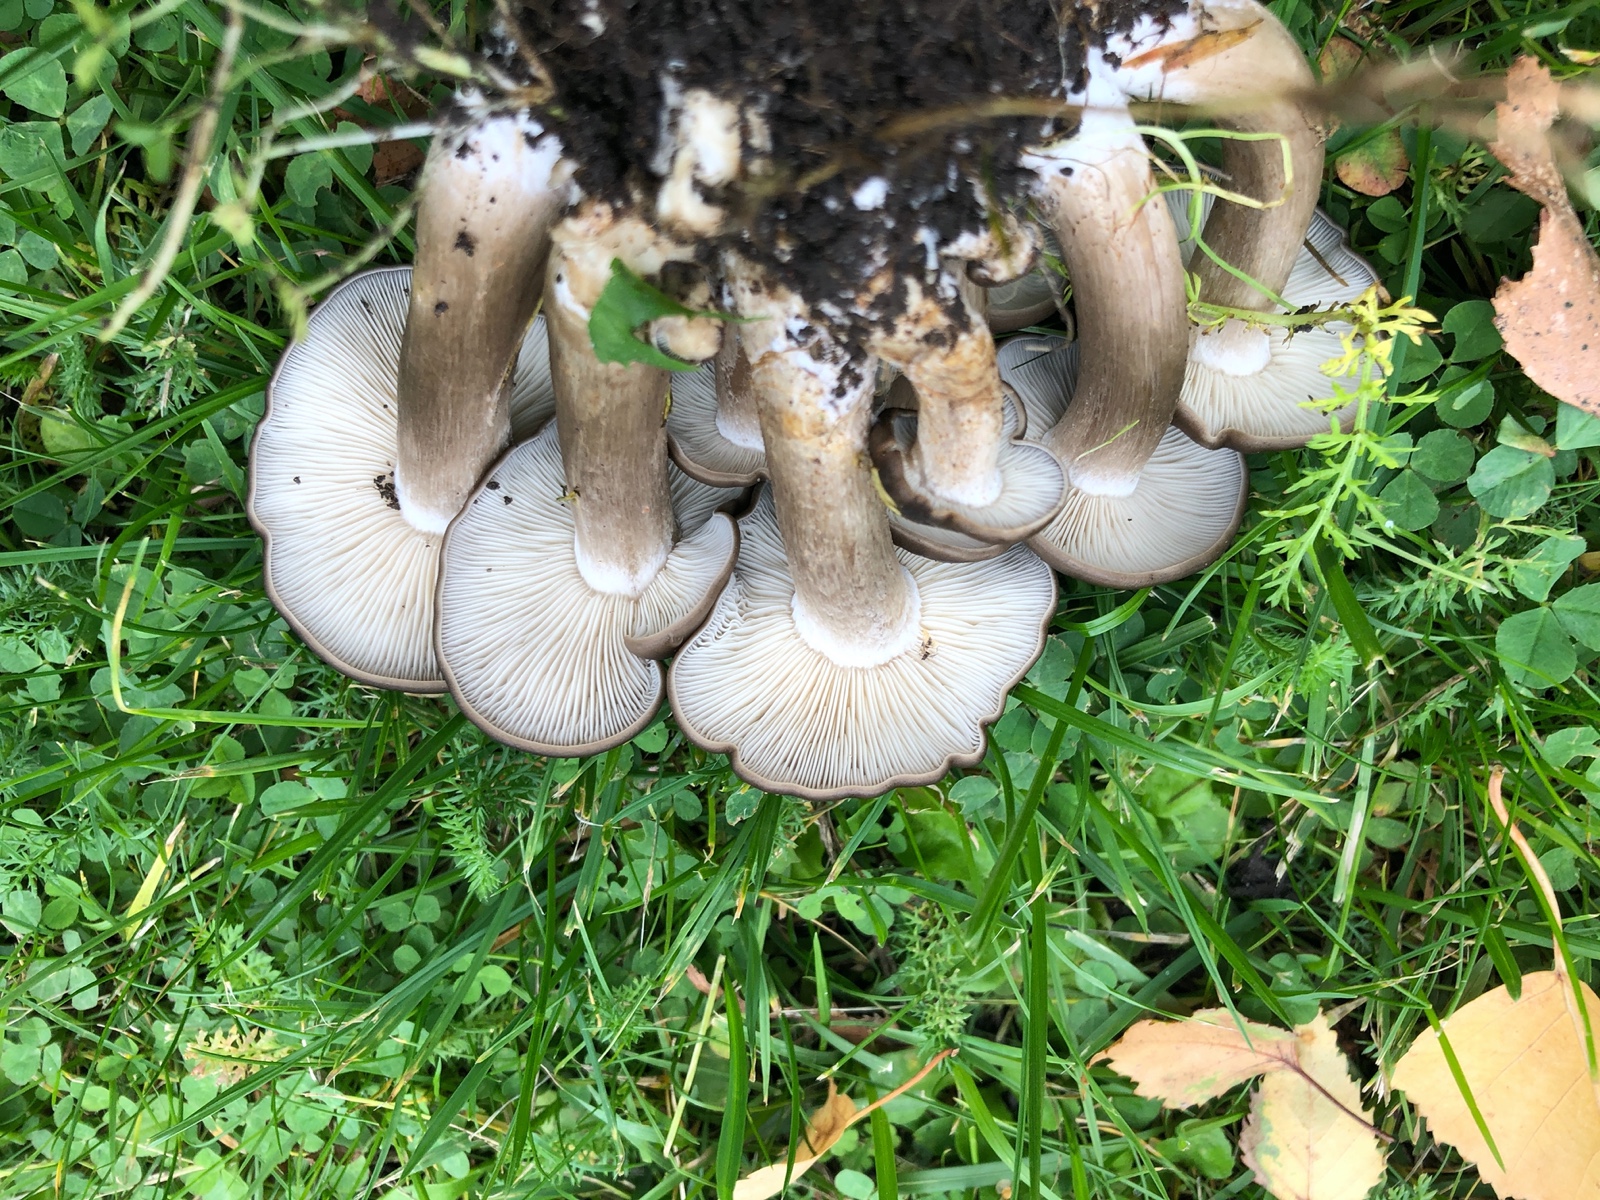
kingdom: Fungi
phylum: Basidiomycota
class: Agaricomycetes
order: Agaricales
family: Lyophyllaceae
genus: Lyophyllum
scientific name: Lyophyllum decastes
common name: røggrå gråblad
